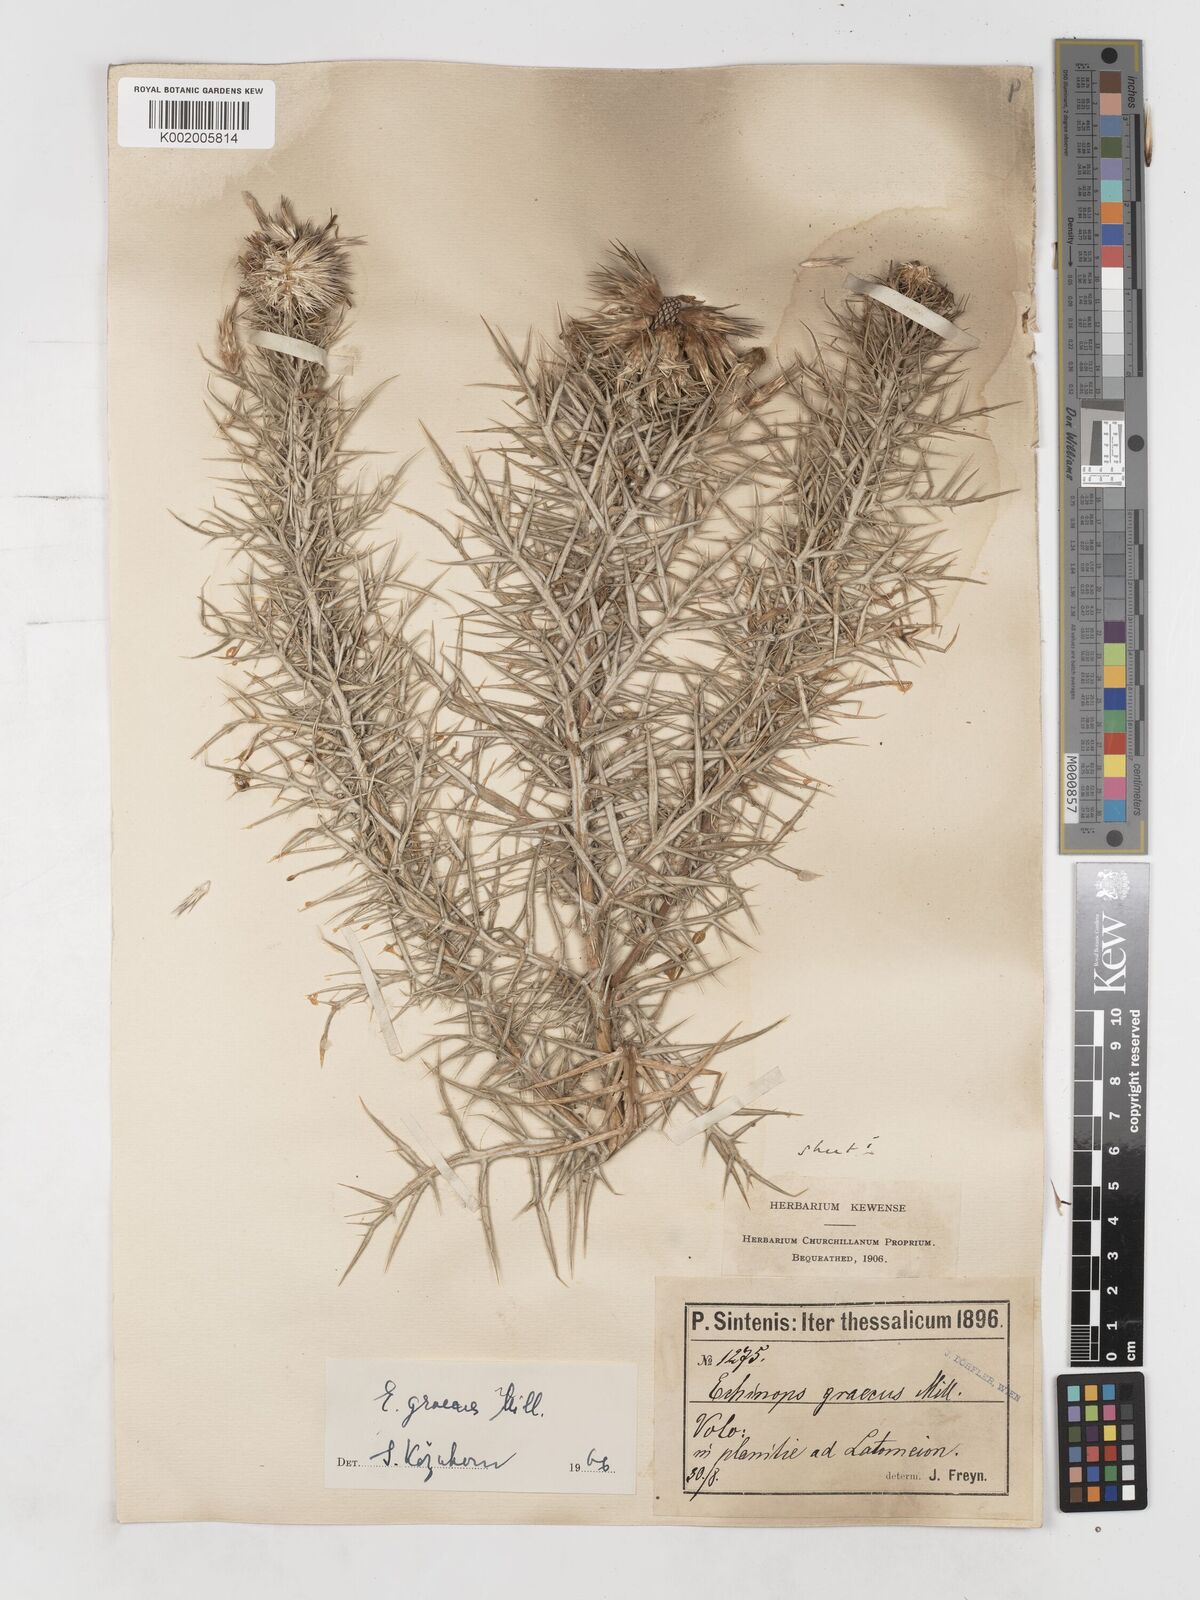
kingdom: Plantae
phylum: Tracheophyta
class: Magnoliopsida
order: Asterales
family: Asteraceae
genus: Echinops
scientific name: Echinops graecus
